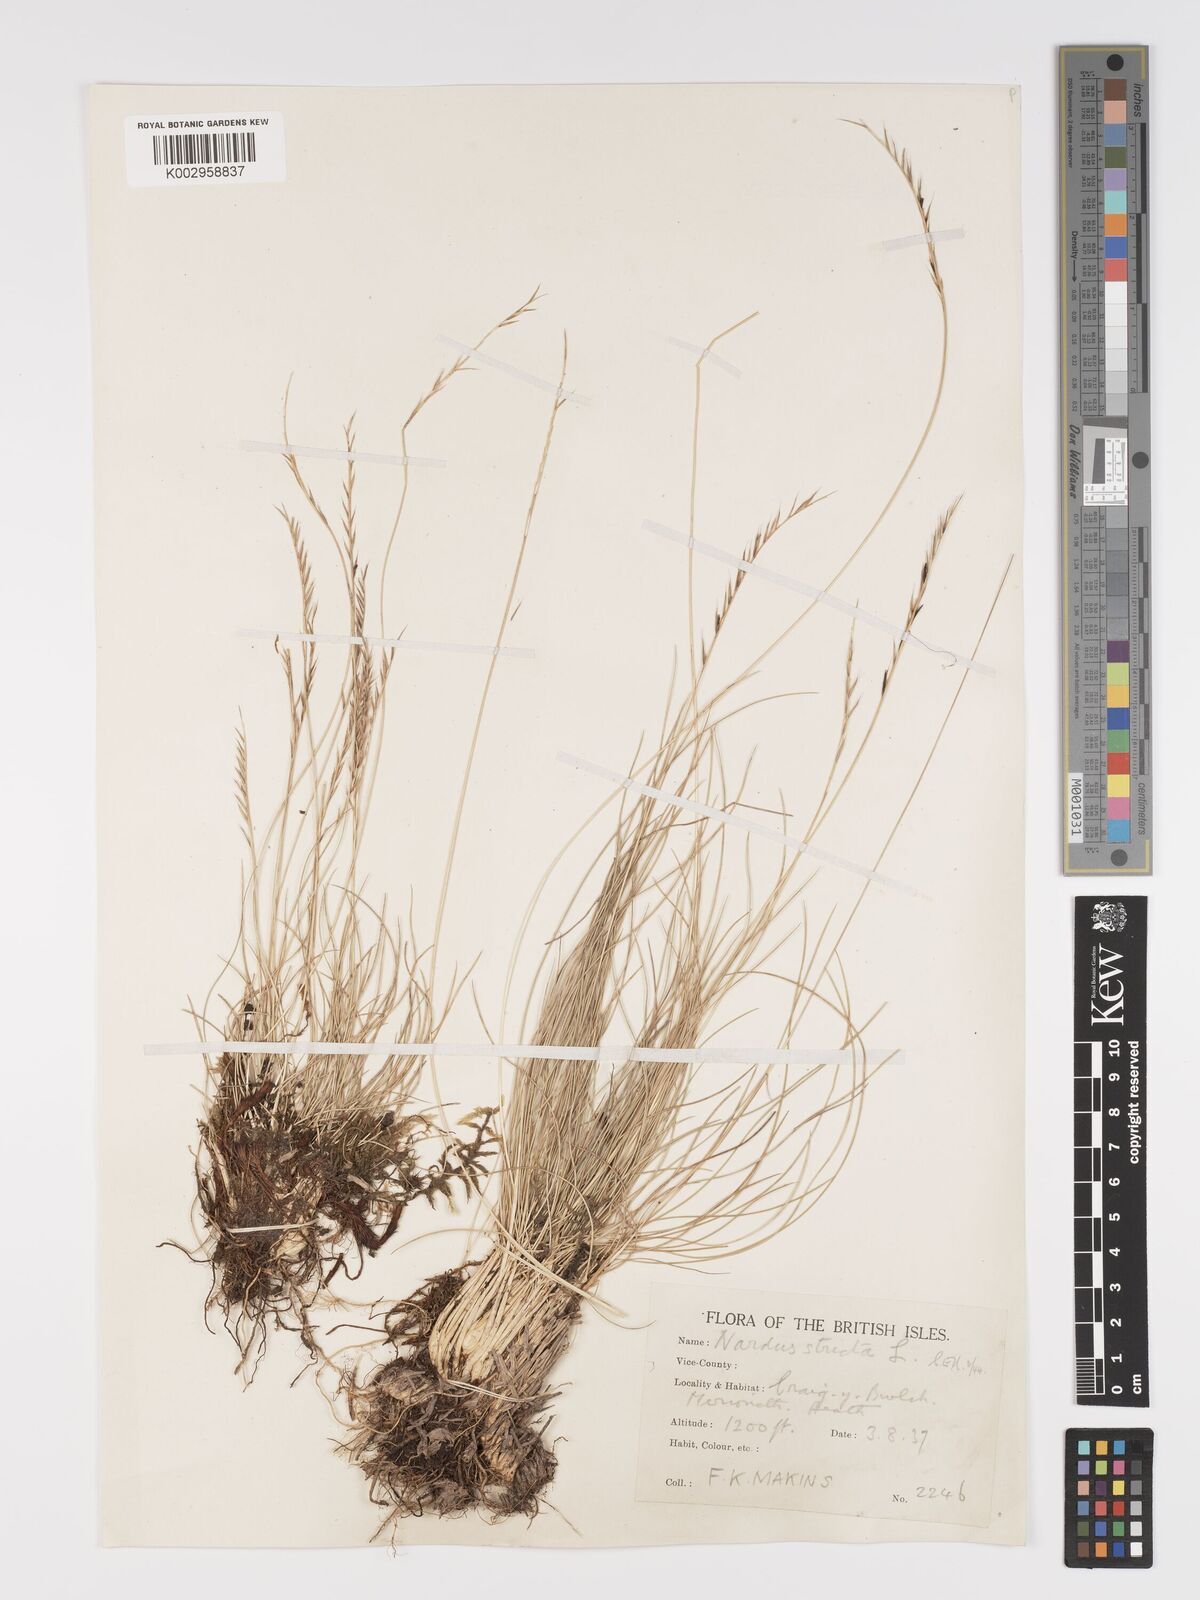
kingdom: Plantae
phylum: Tracheophyta
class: Liliopsida
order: Poales
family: Poaceae
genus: Nardus
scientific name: Nardus stricta
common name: Mat-grass
